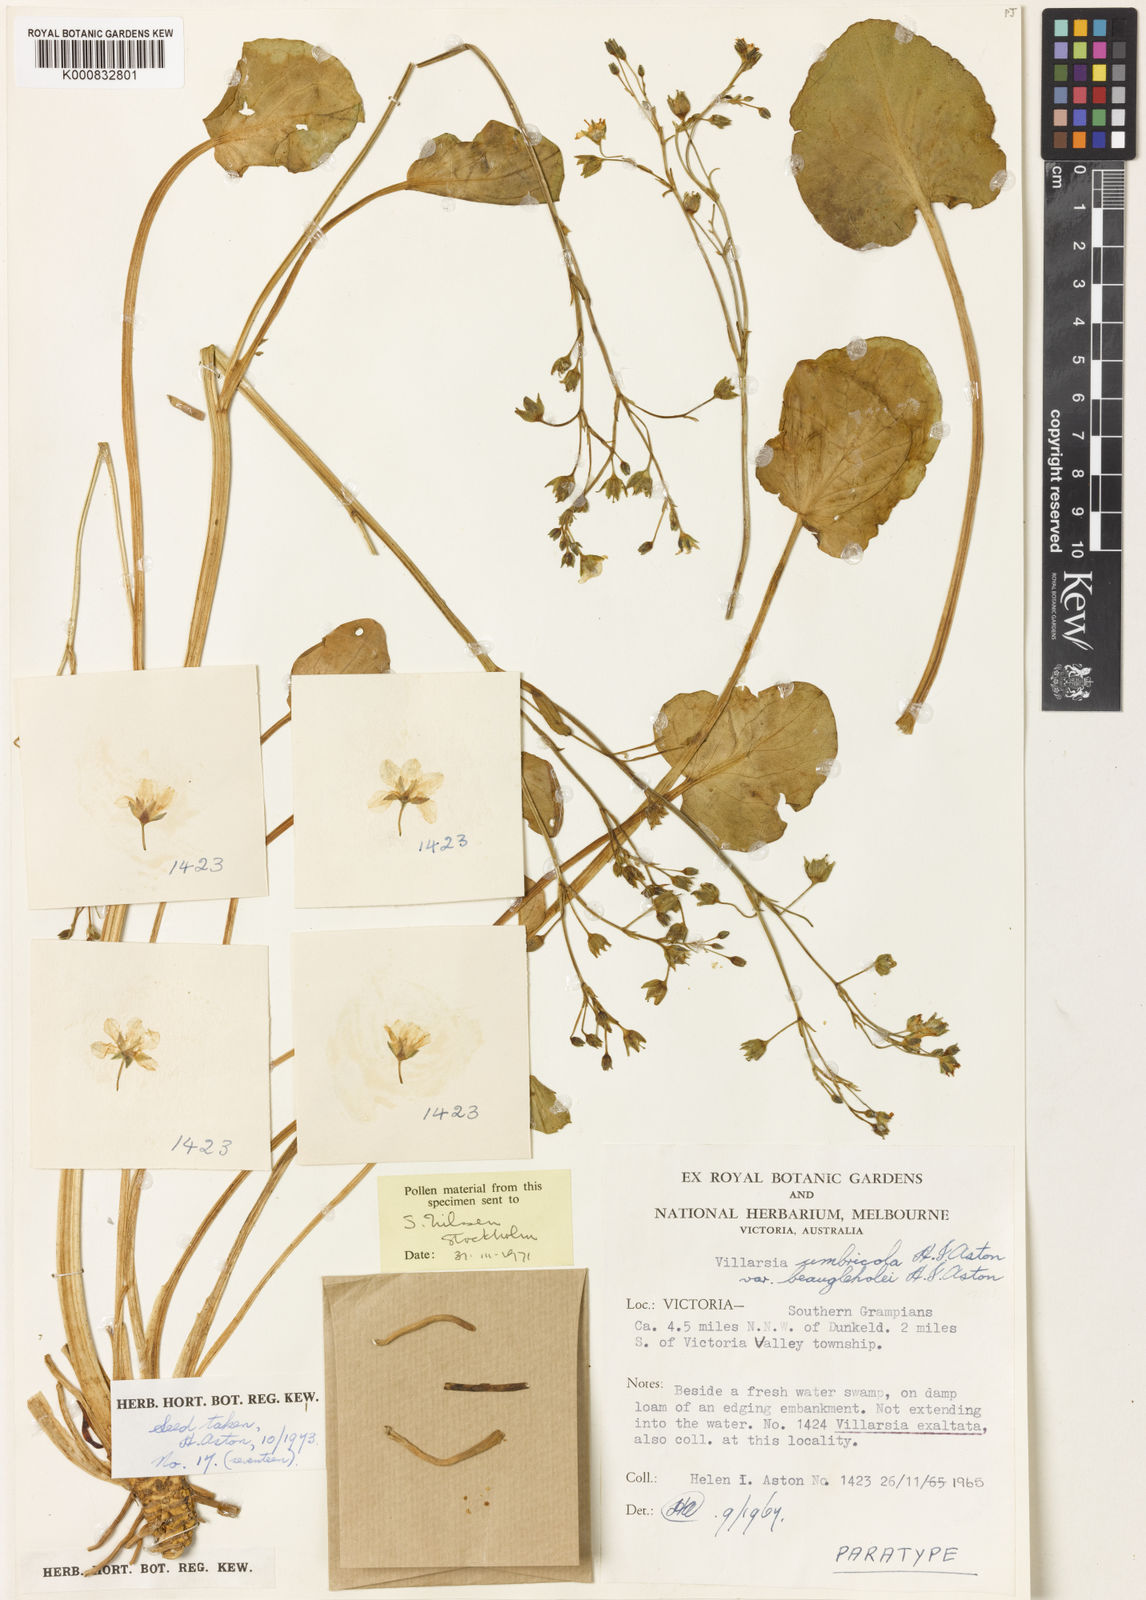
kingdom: Plantae
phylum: Tracheophyta
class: Magnoliopsida
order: Asterales
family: Menyanthaceae
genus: Ornduffia
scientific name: Ornduffia umbricola
